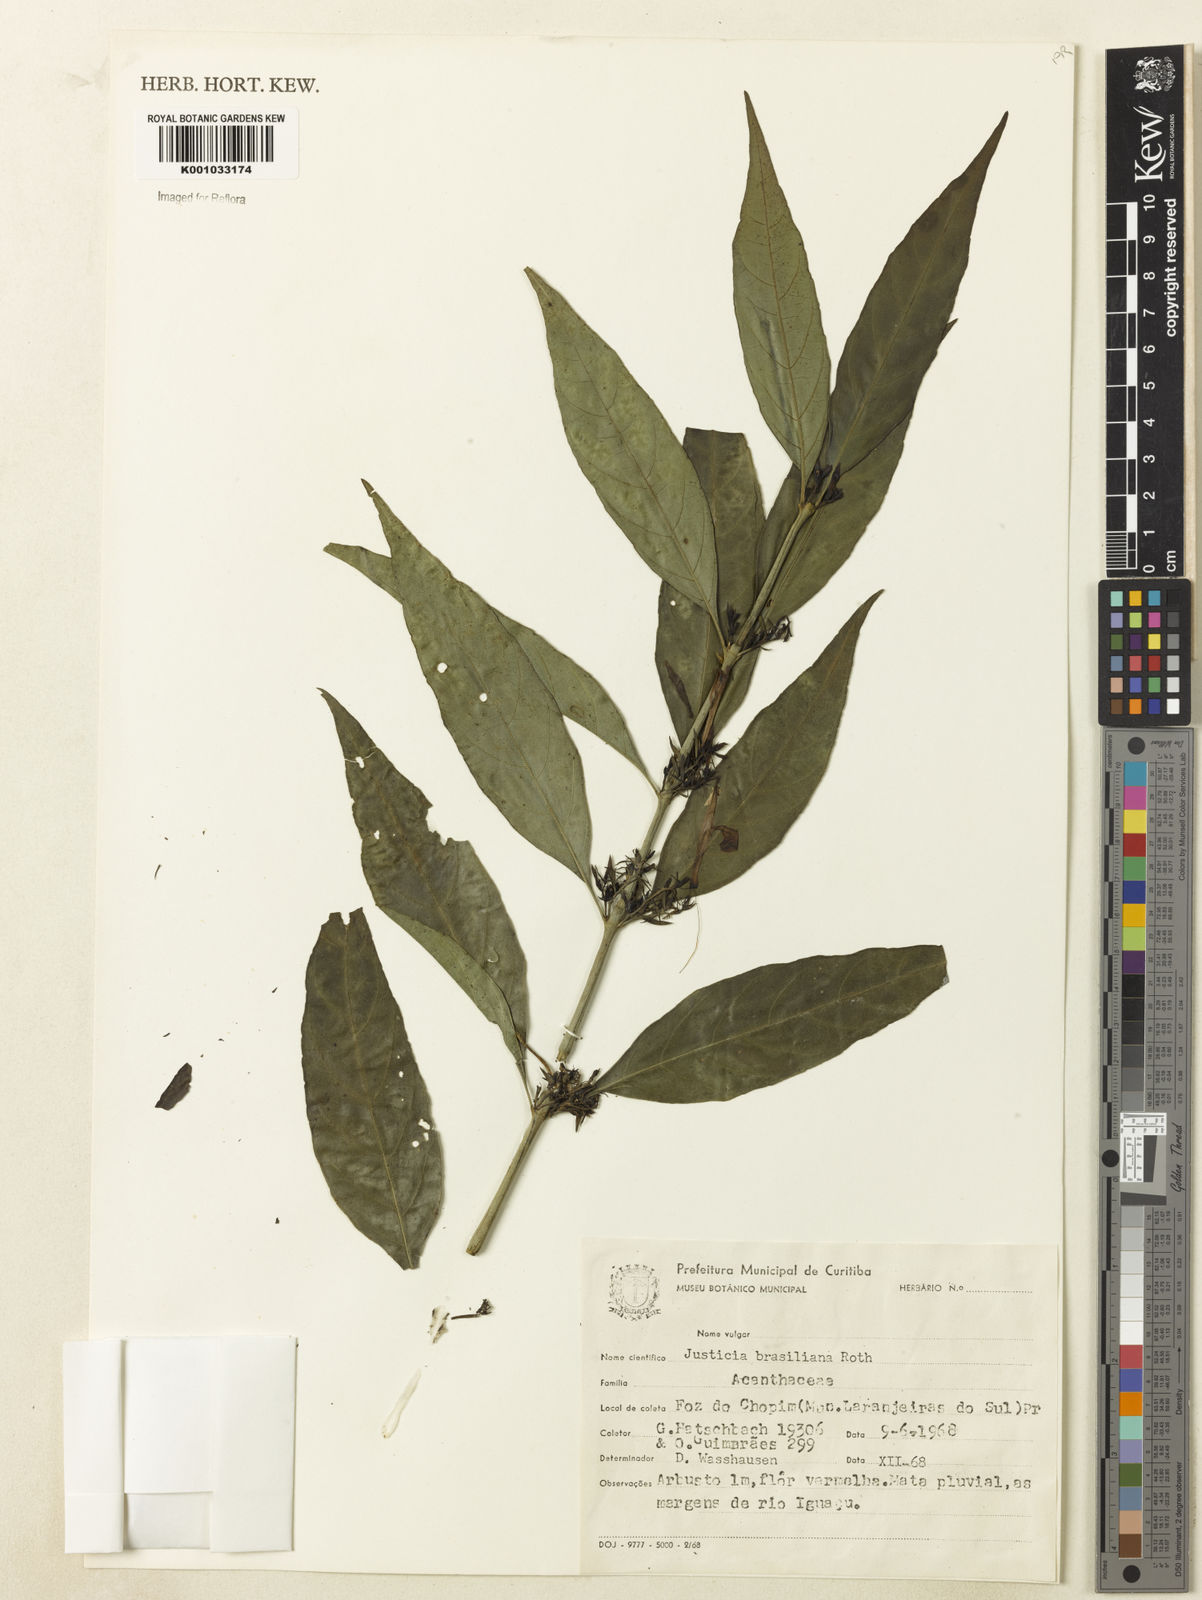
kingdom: Plantae
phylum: Tracheophyta
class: Magnoliopsida
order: Lamiales
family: Acanthaceae
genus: Justicia
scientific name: Justicia brasiliana
